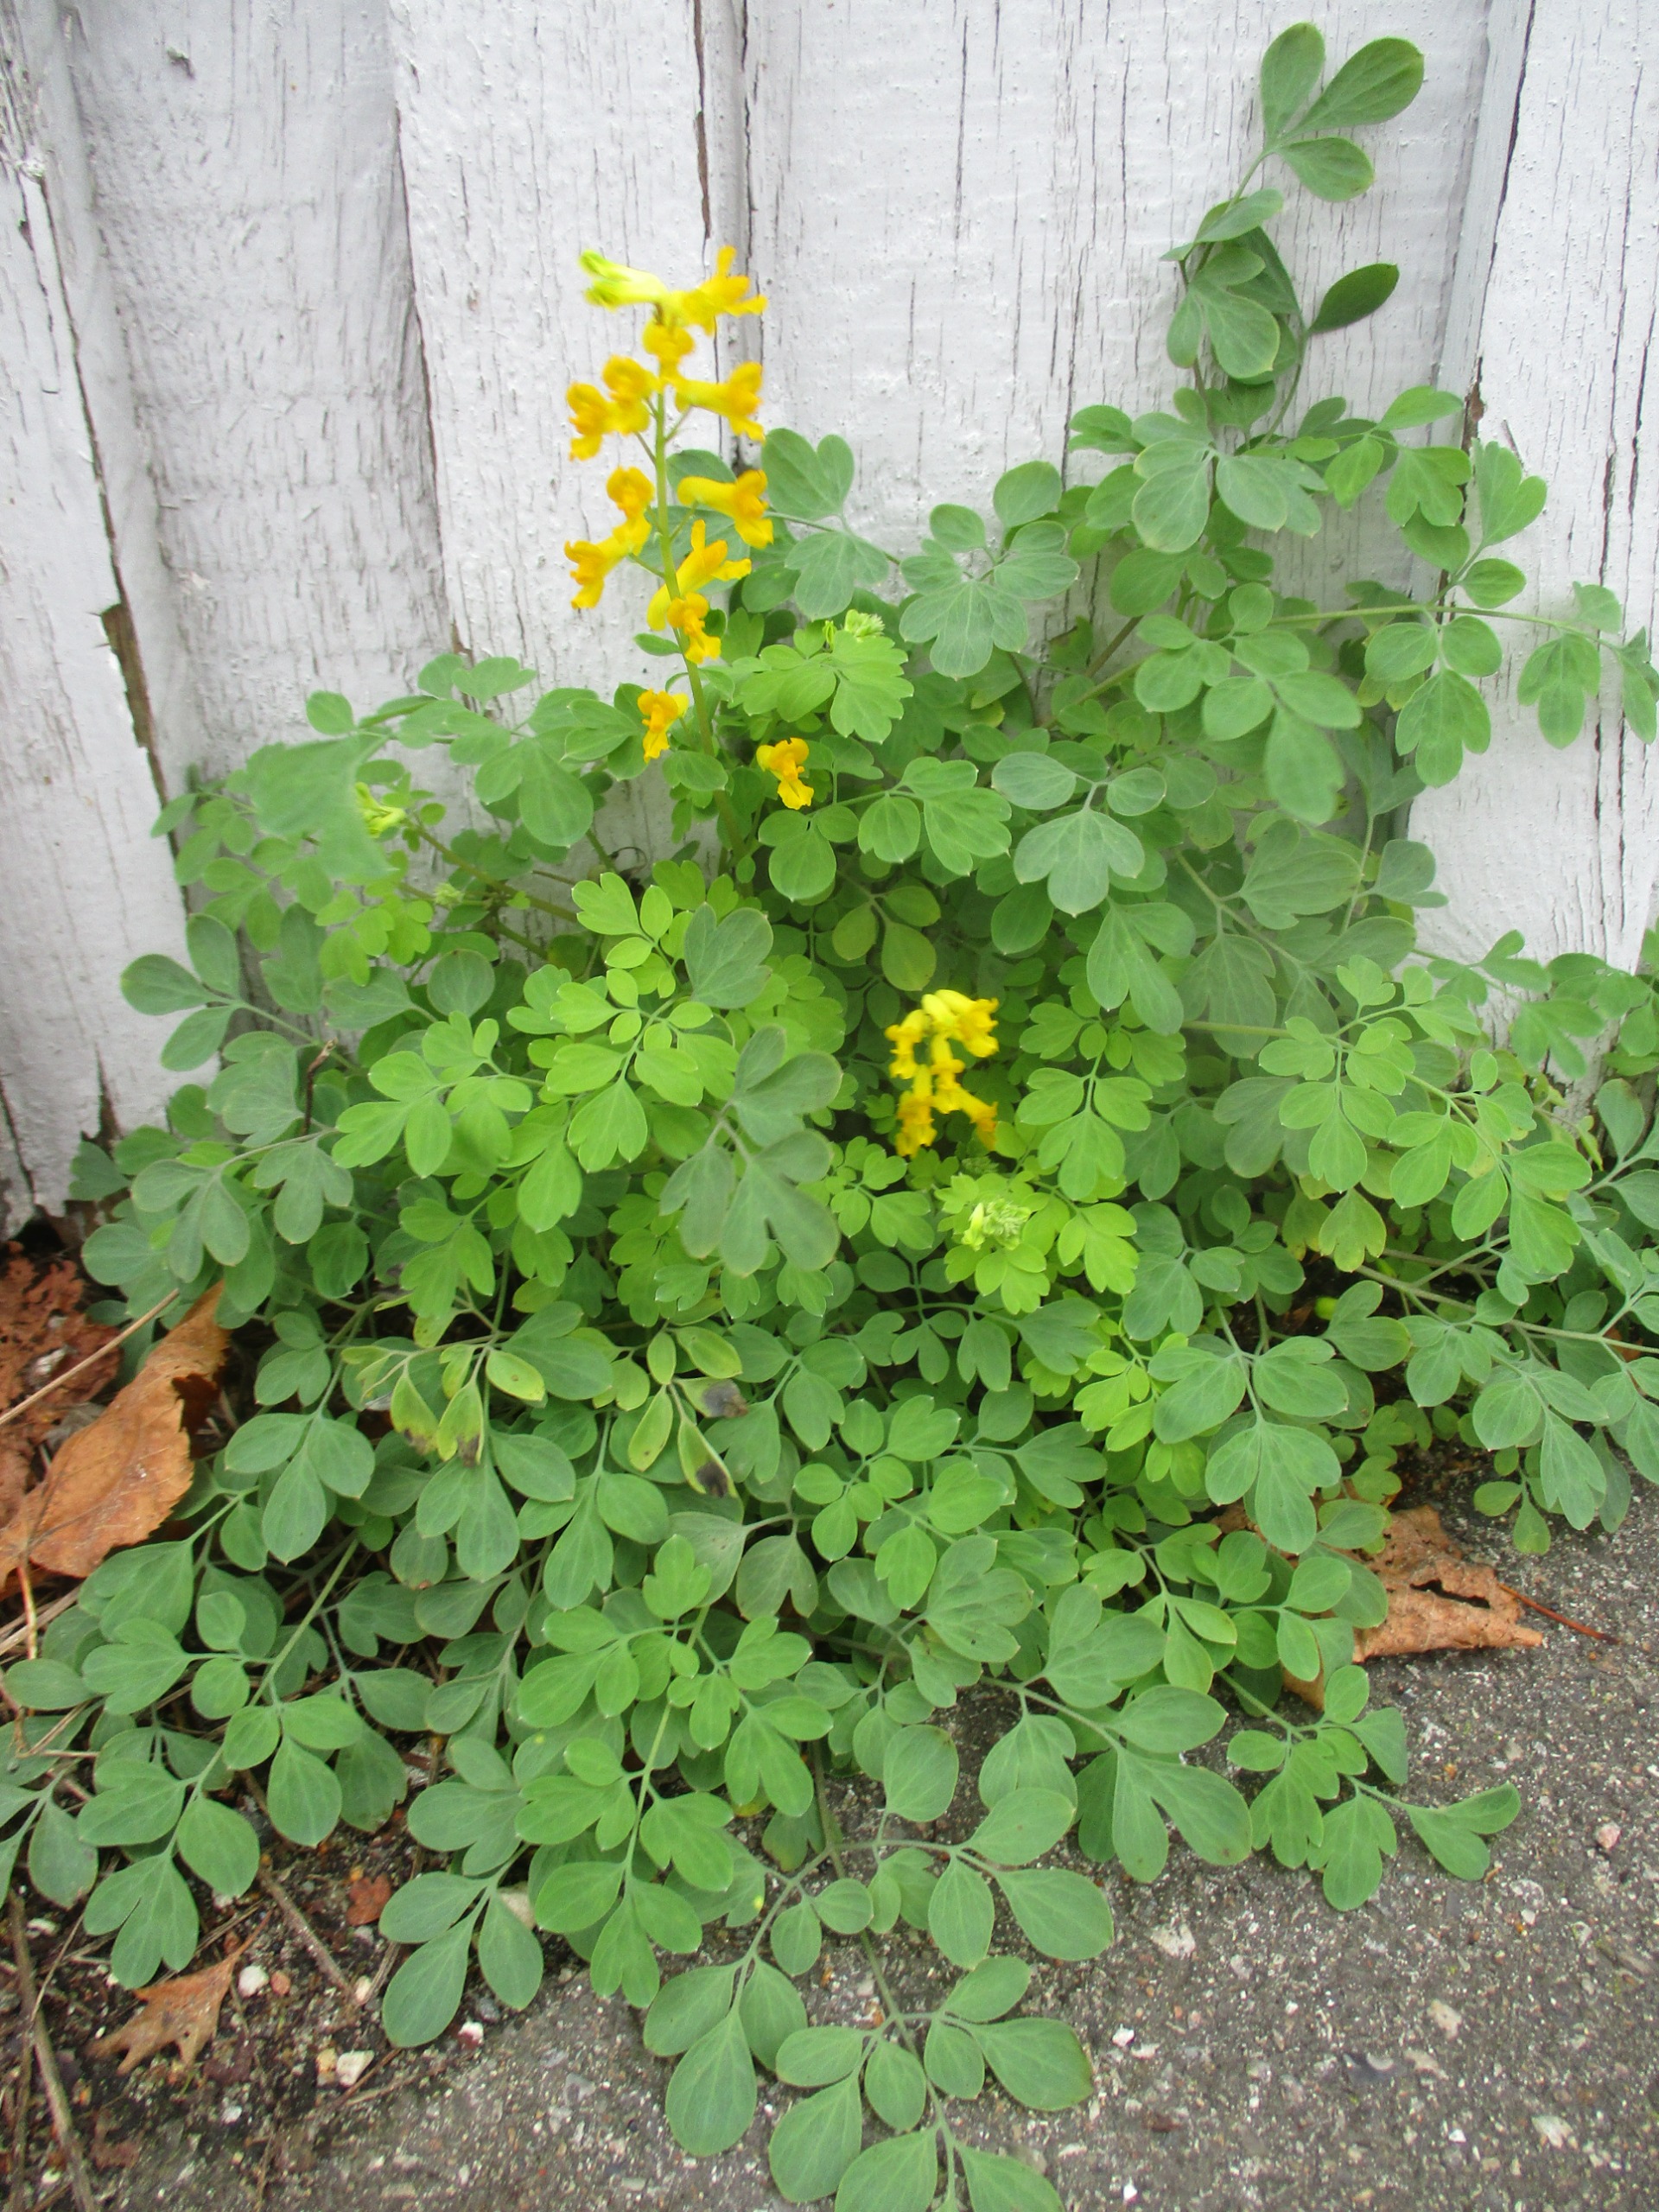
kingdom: Plantae
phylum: Tracheophyta
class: Magnoliopsida
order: Ranunculales
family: Papaveraceae
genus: Pseudofumaria
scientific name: Pseudofumaria lutea
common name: Gul lærkespore
